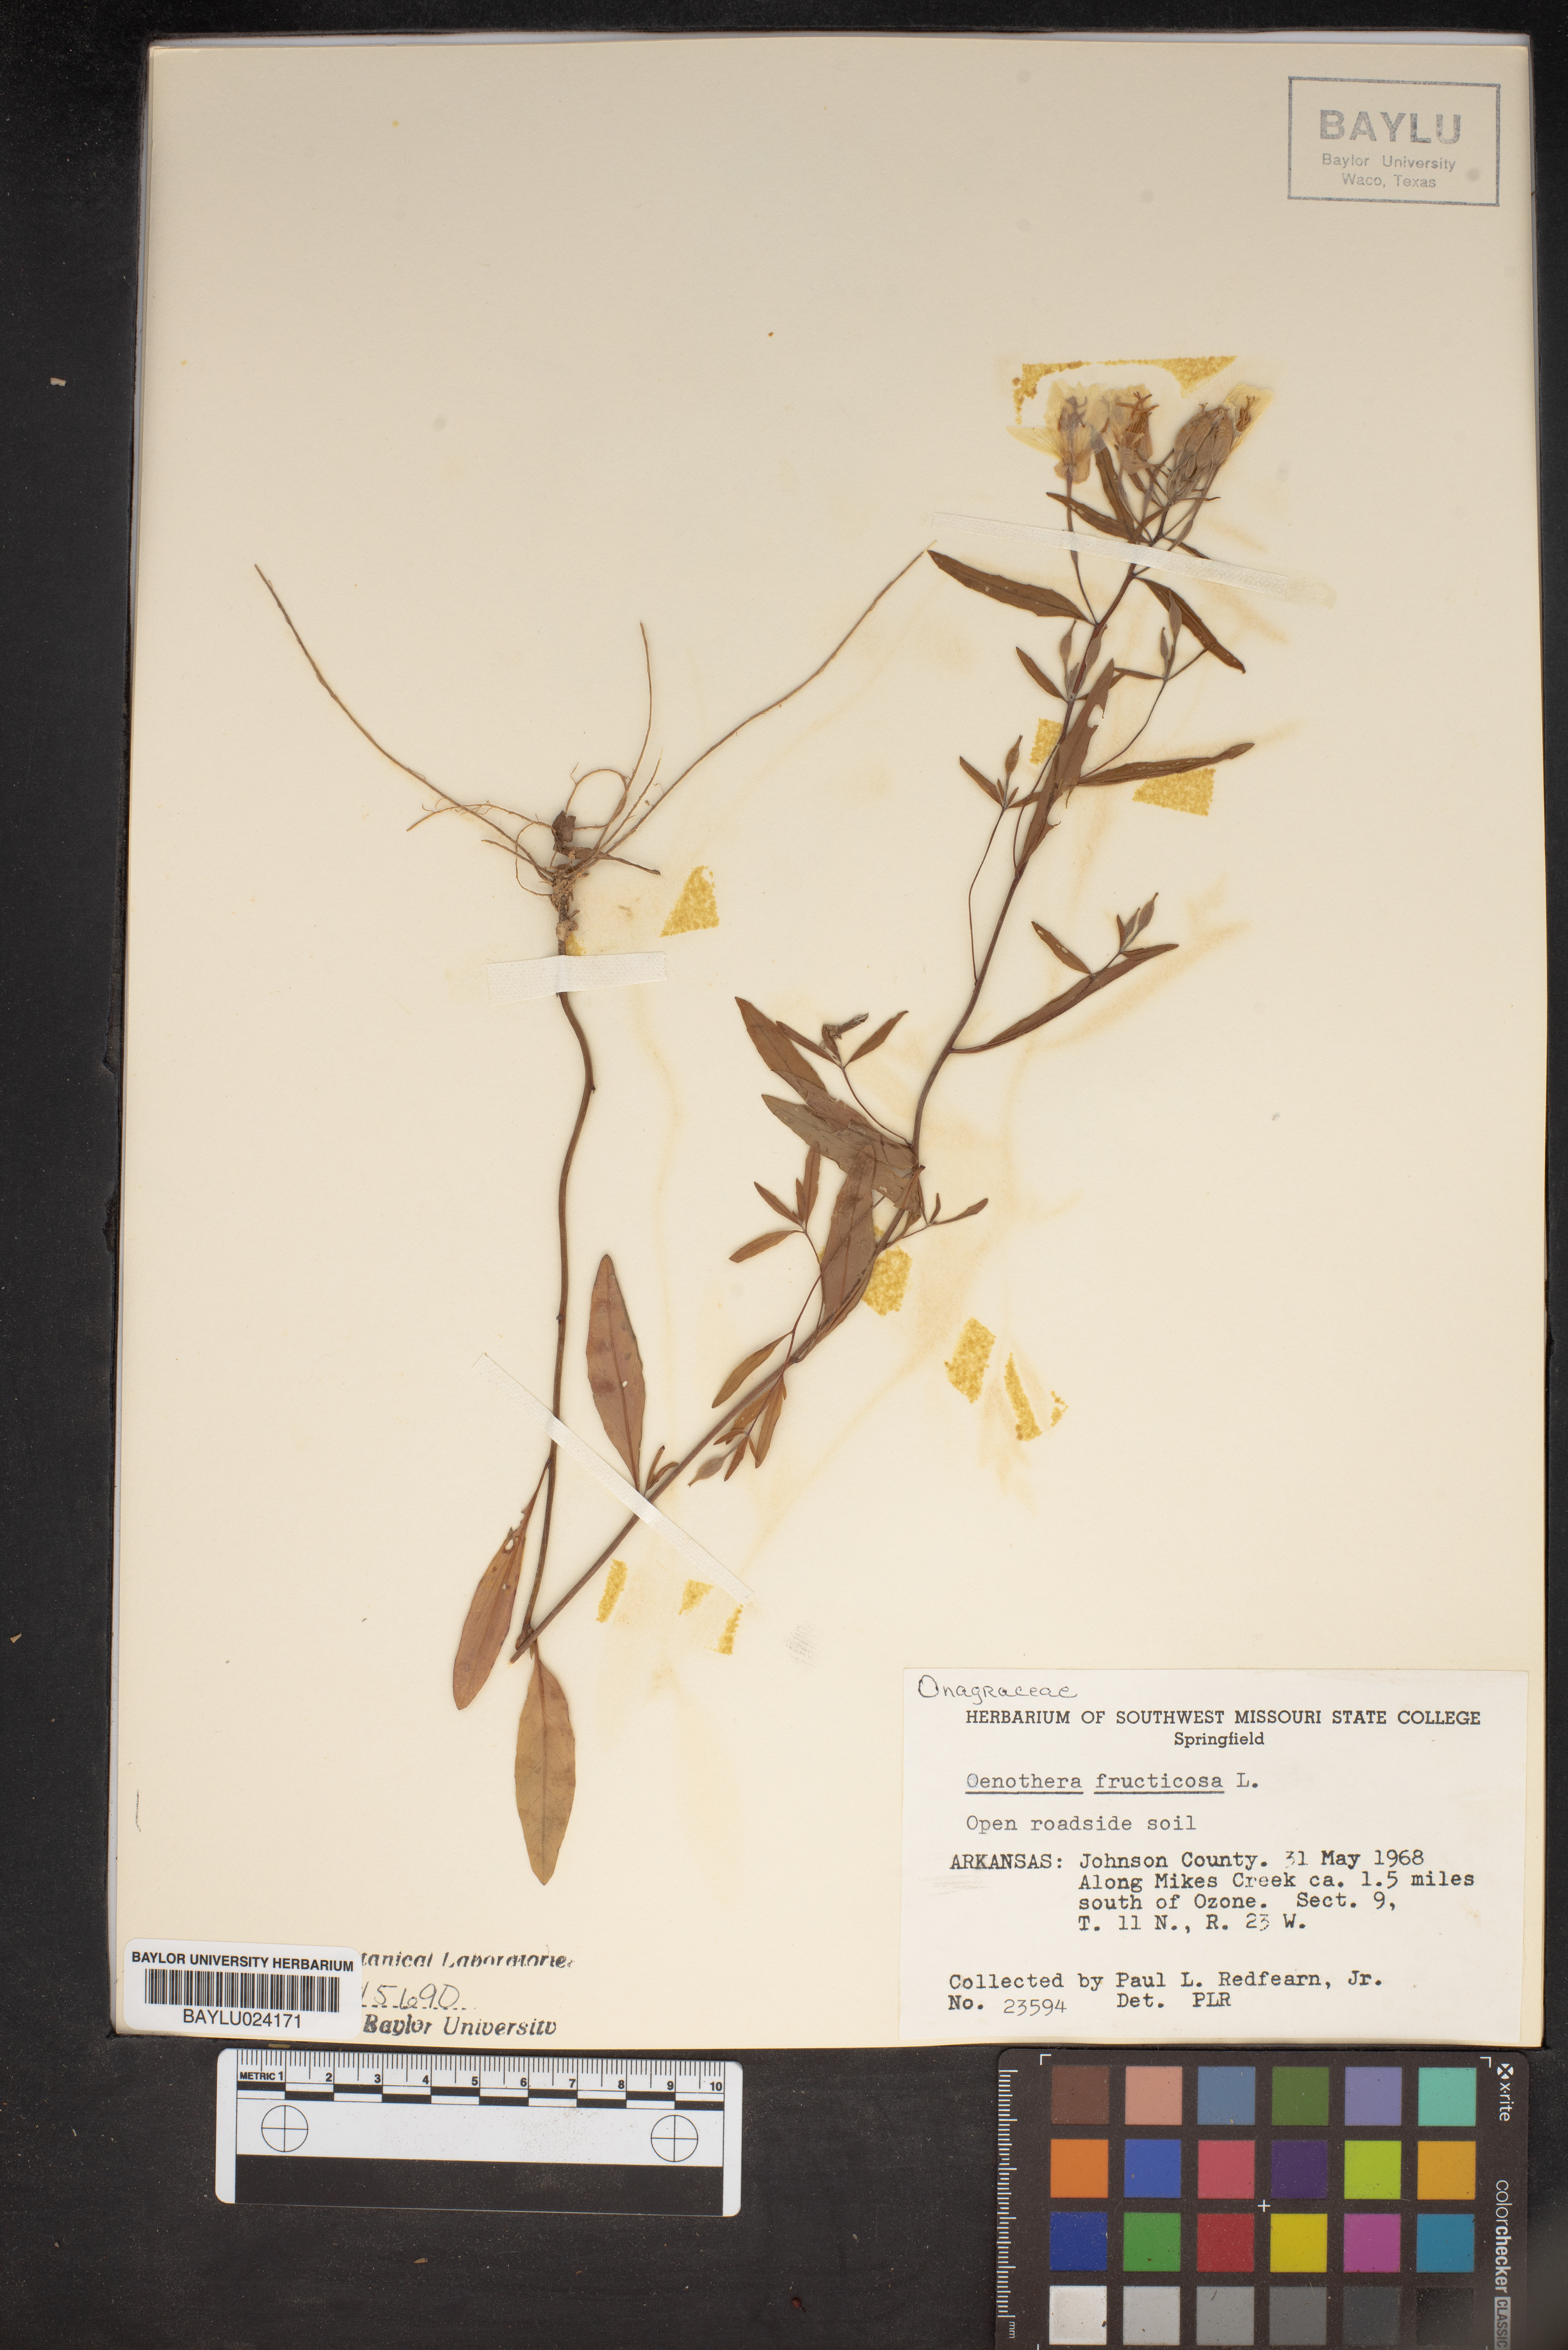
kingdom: Plantae
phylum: Tracheophyta
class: Magnoliopsida
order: Myrtales
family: Onagraceae
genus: Oenothera
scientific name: Oenothera fruticosa
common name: Southern sundrops
